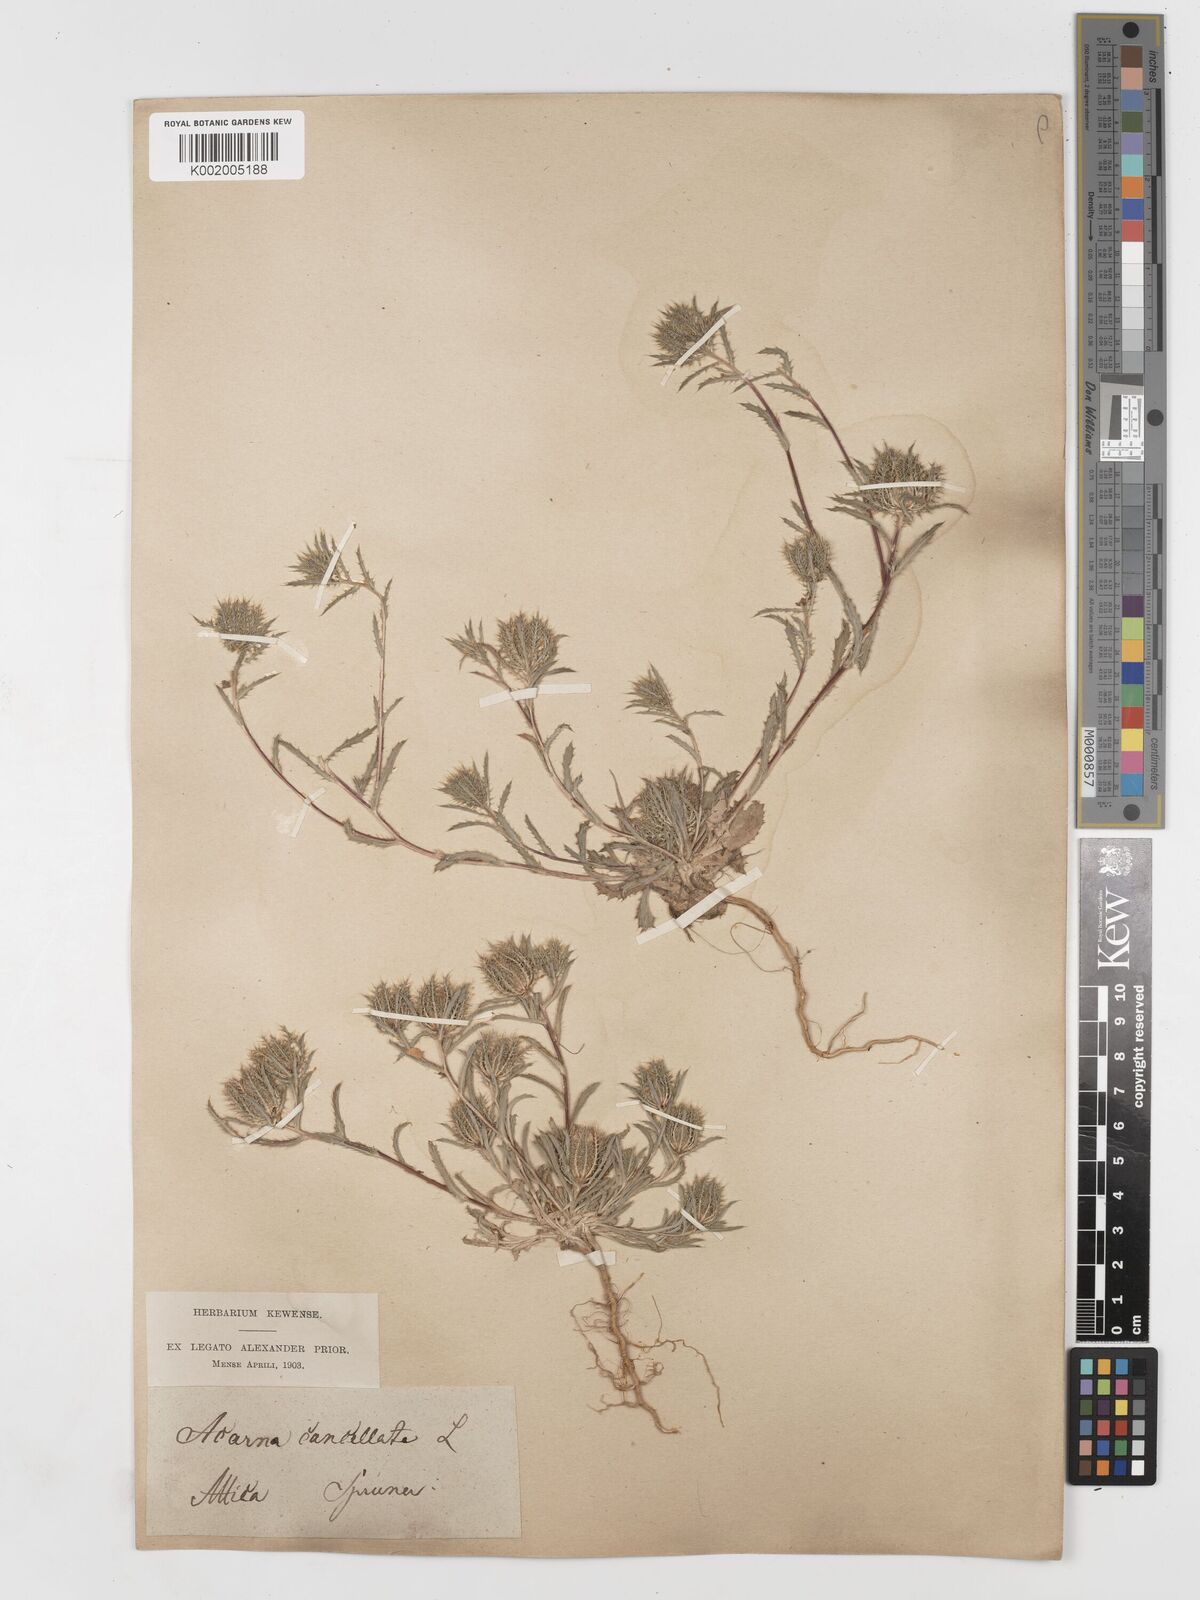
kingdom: Plantae
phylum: Tracheophyta
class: Magnoliopsida
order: Asterales
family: Asteraceae
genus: Atractylis
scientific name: Atractylis cancellata
